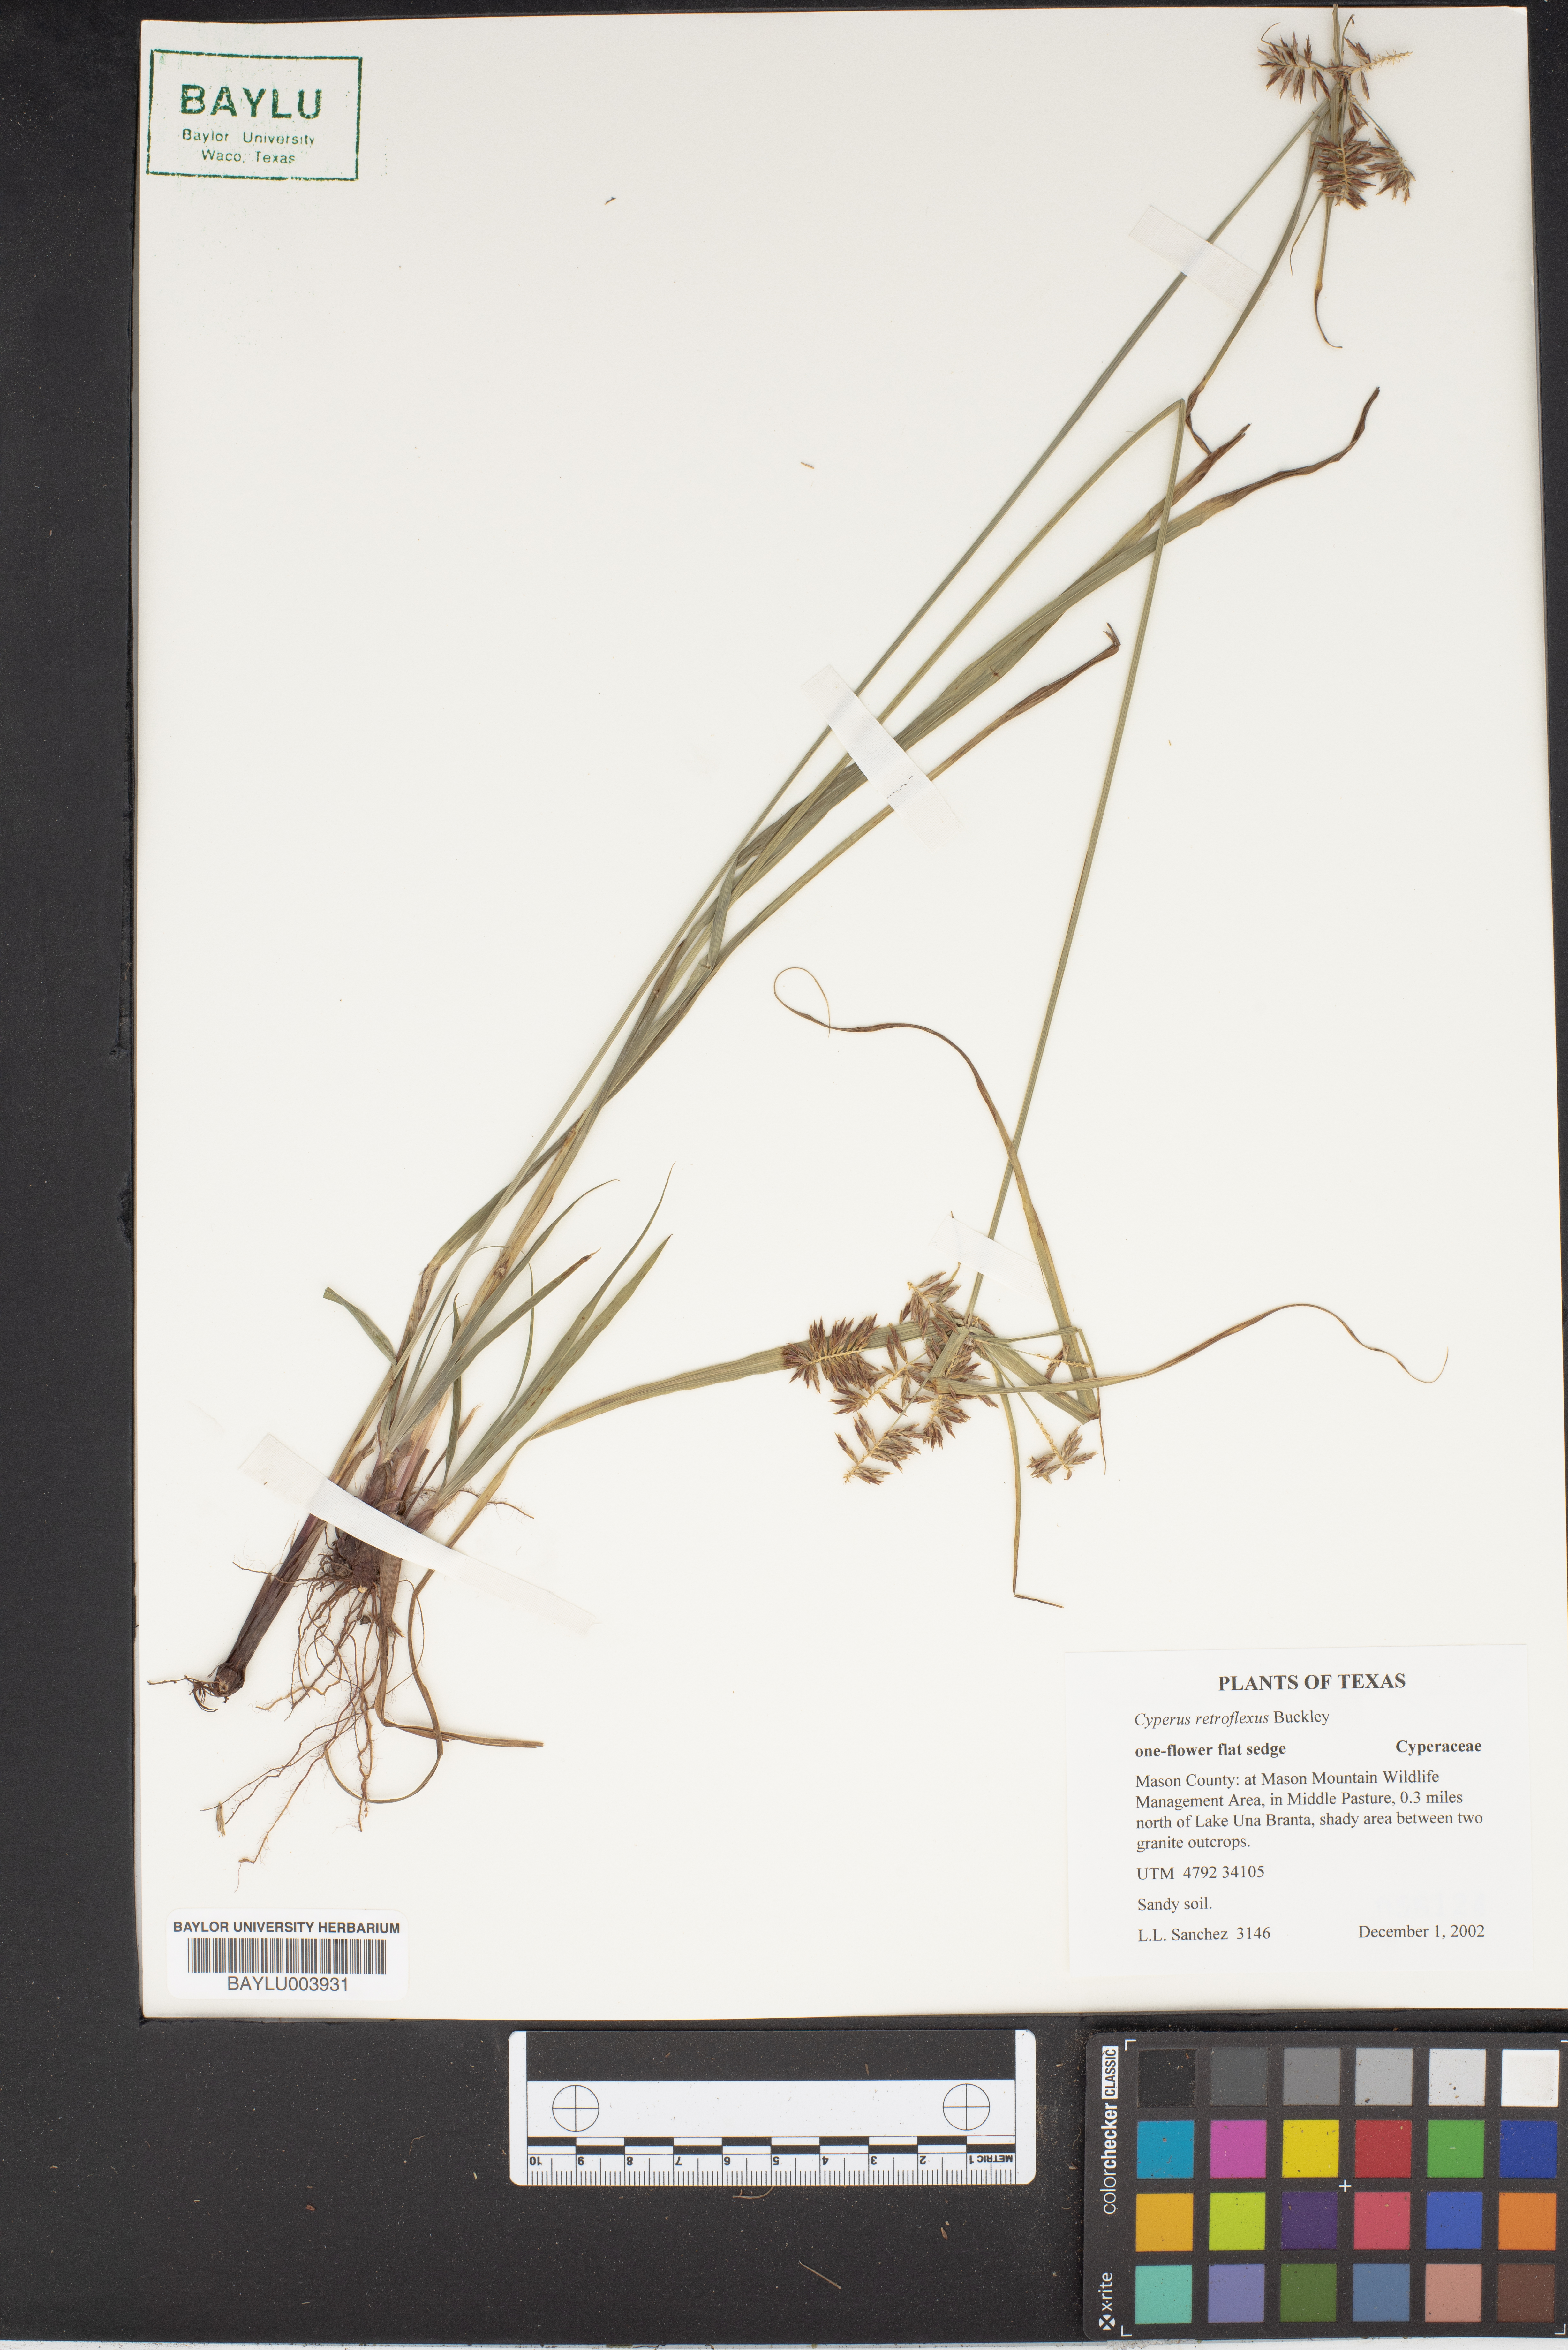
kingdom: Plantae
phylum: Tracheophyta
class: Liliopsida
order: Poales
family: Cyperaceae
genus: Cyperus
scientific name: Cyperus retroflexus
